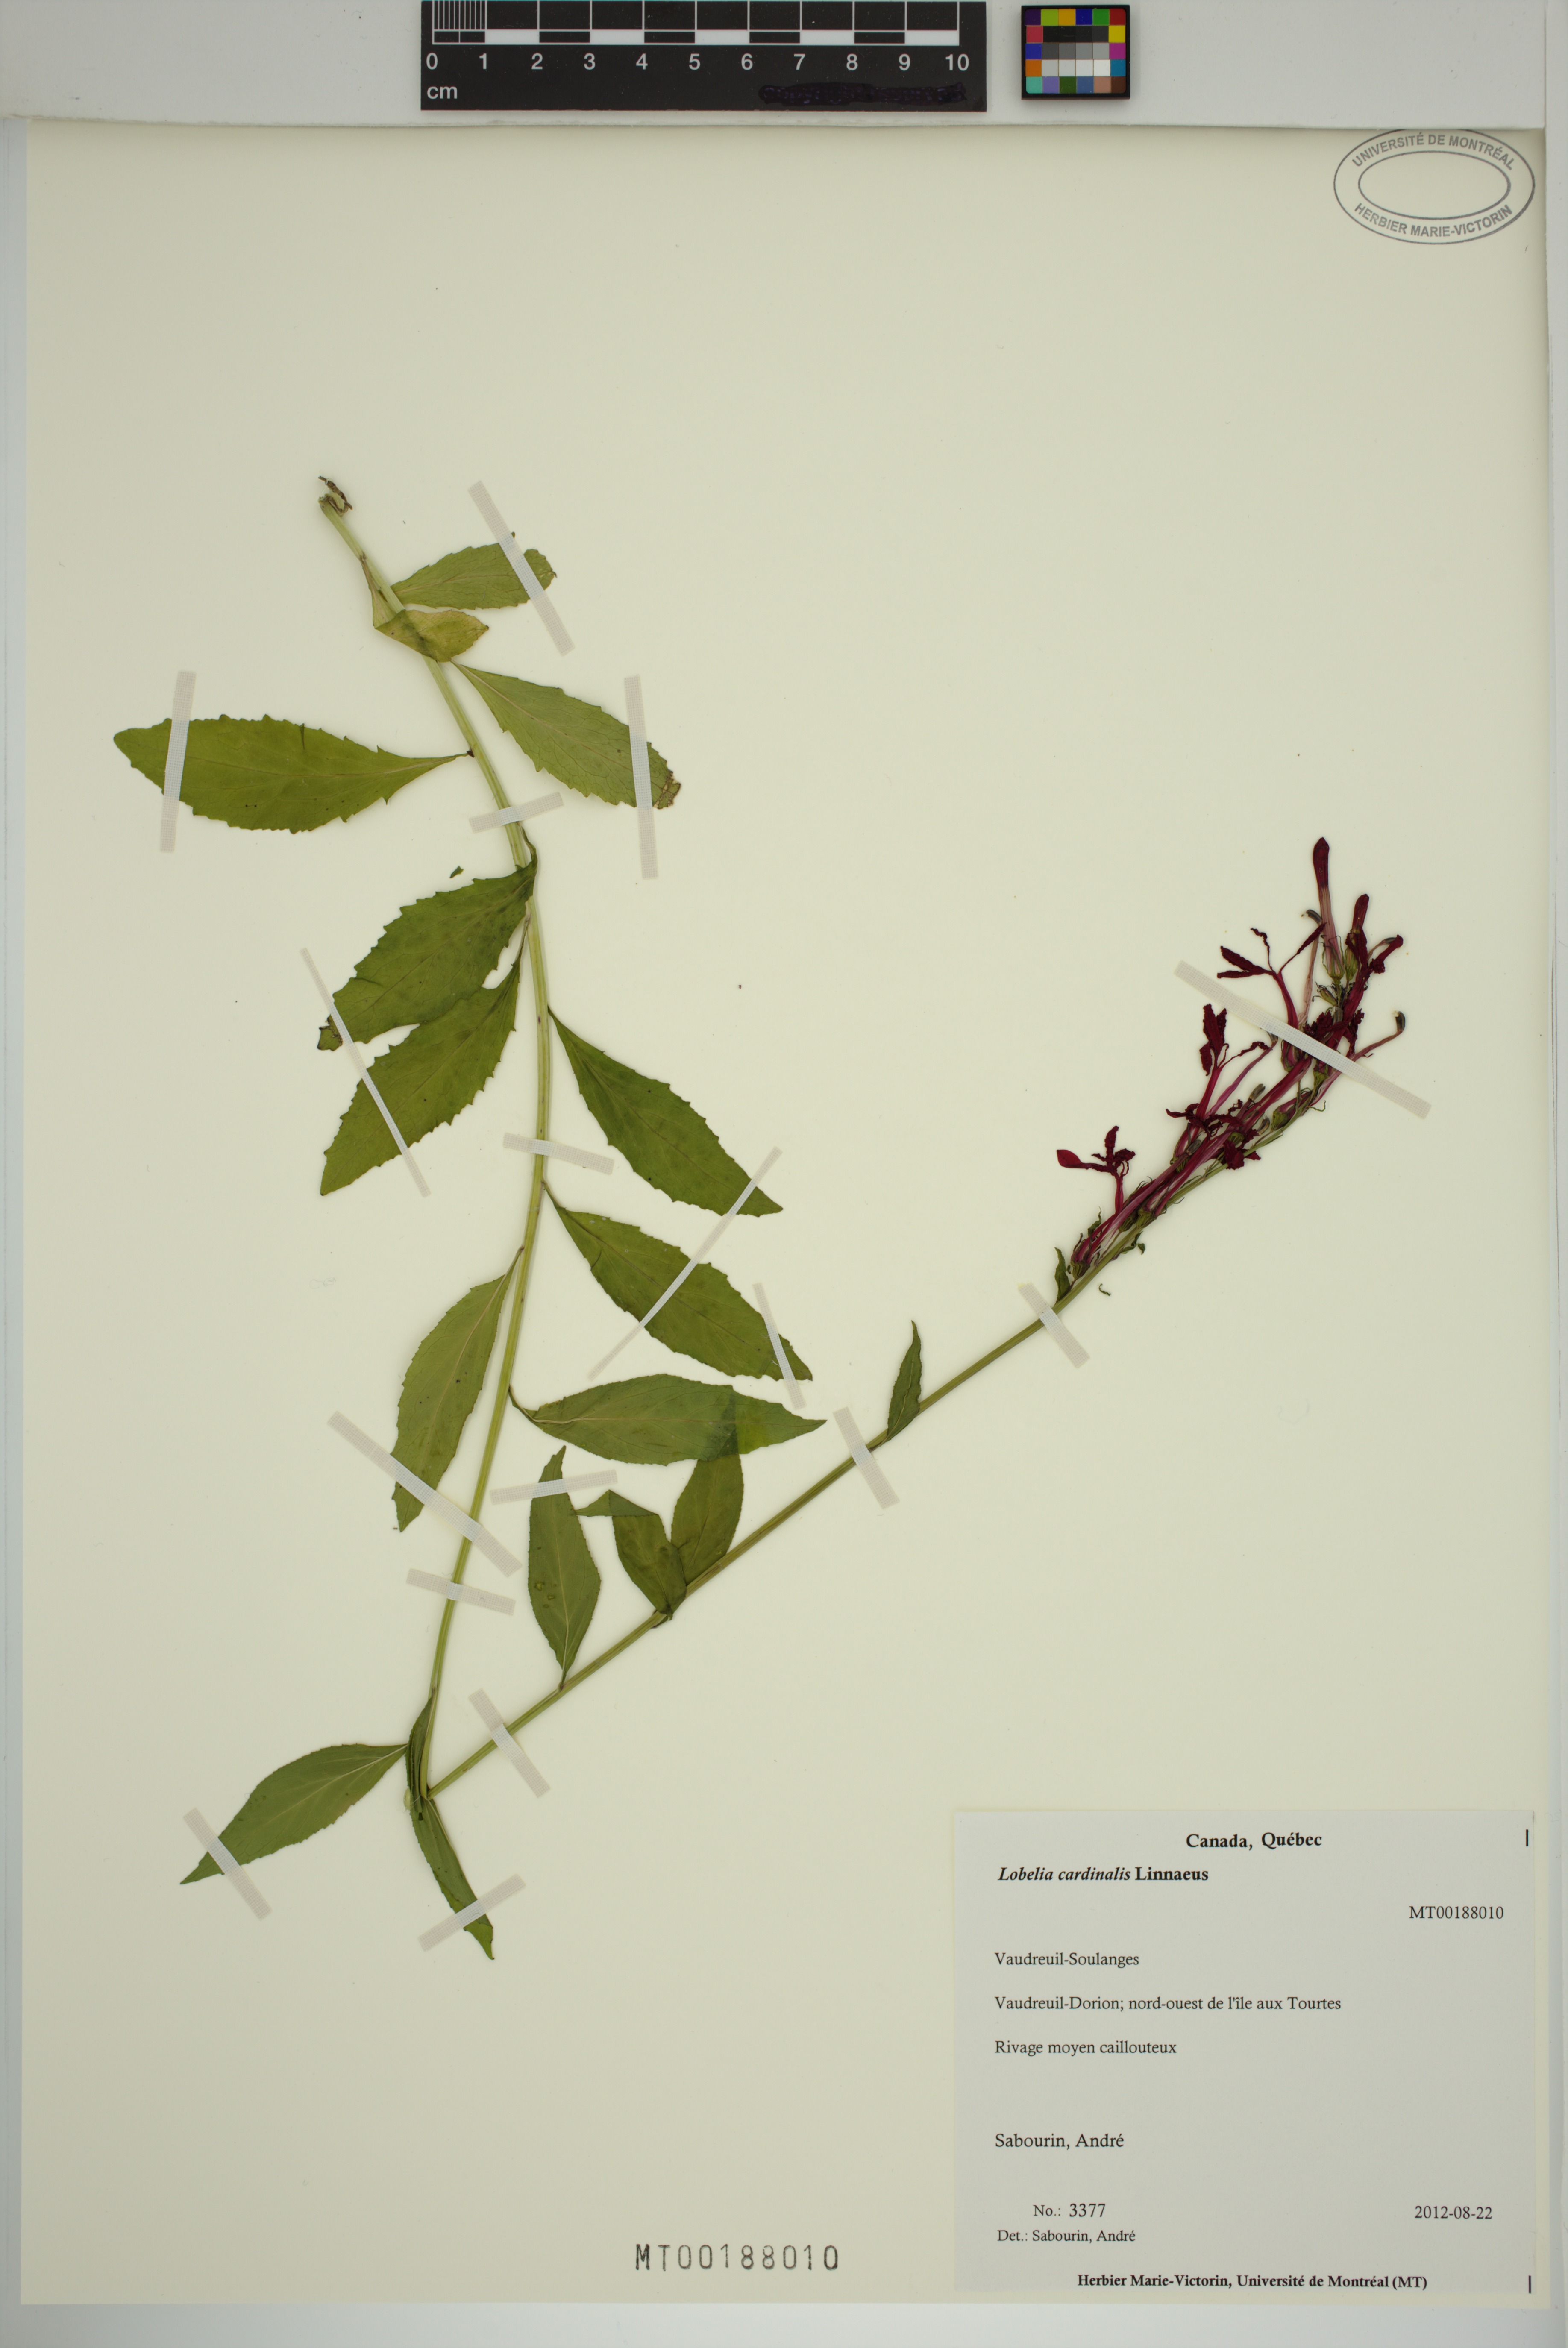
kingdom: Plantae
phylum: Tracheophyta
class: Magnoliopsida
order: Asterales
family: Campanulaceae
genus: Lobelia
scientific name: Lobelia cardinalis
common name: Cardinal flower
